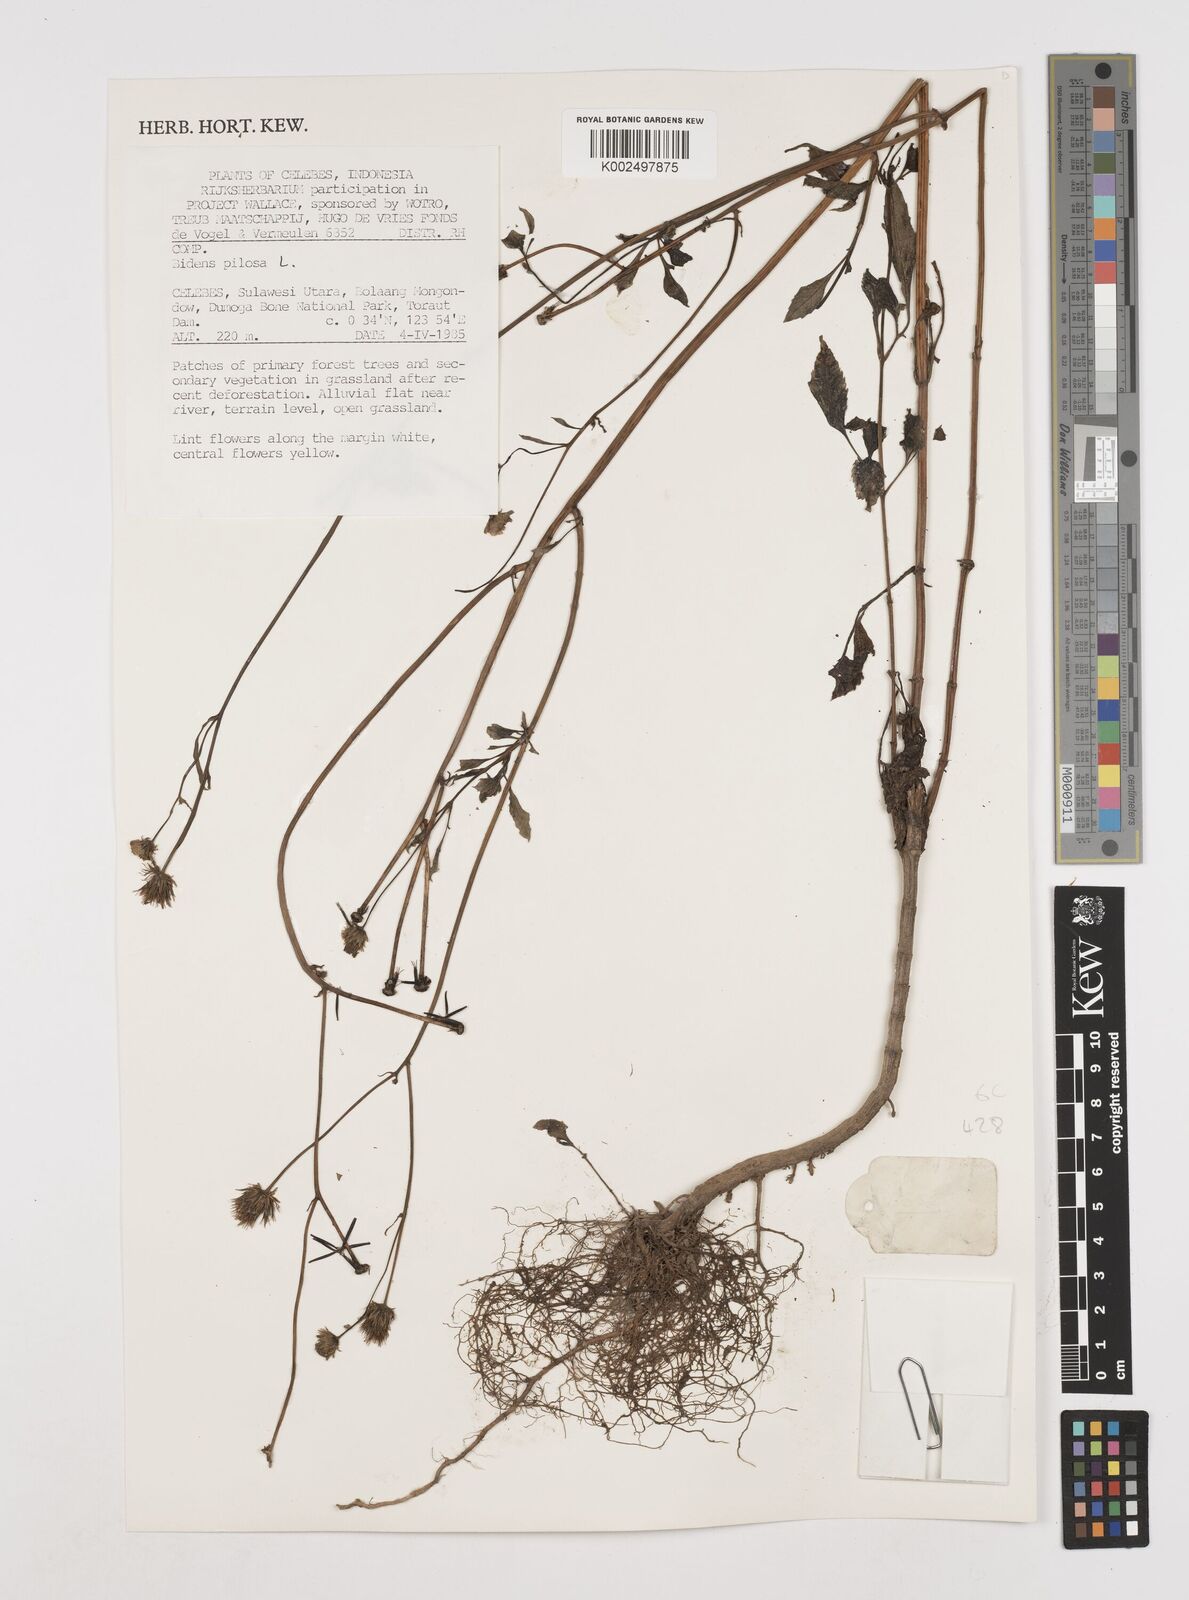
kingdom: Plantae
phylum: Tracheophyta
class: Magnoliopsida
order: Asterales
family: Asteraceae
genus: Bidens
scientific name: Bidens pilosa
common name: Black-jack
